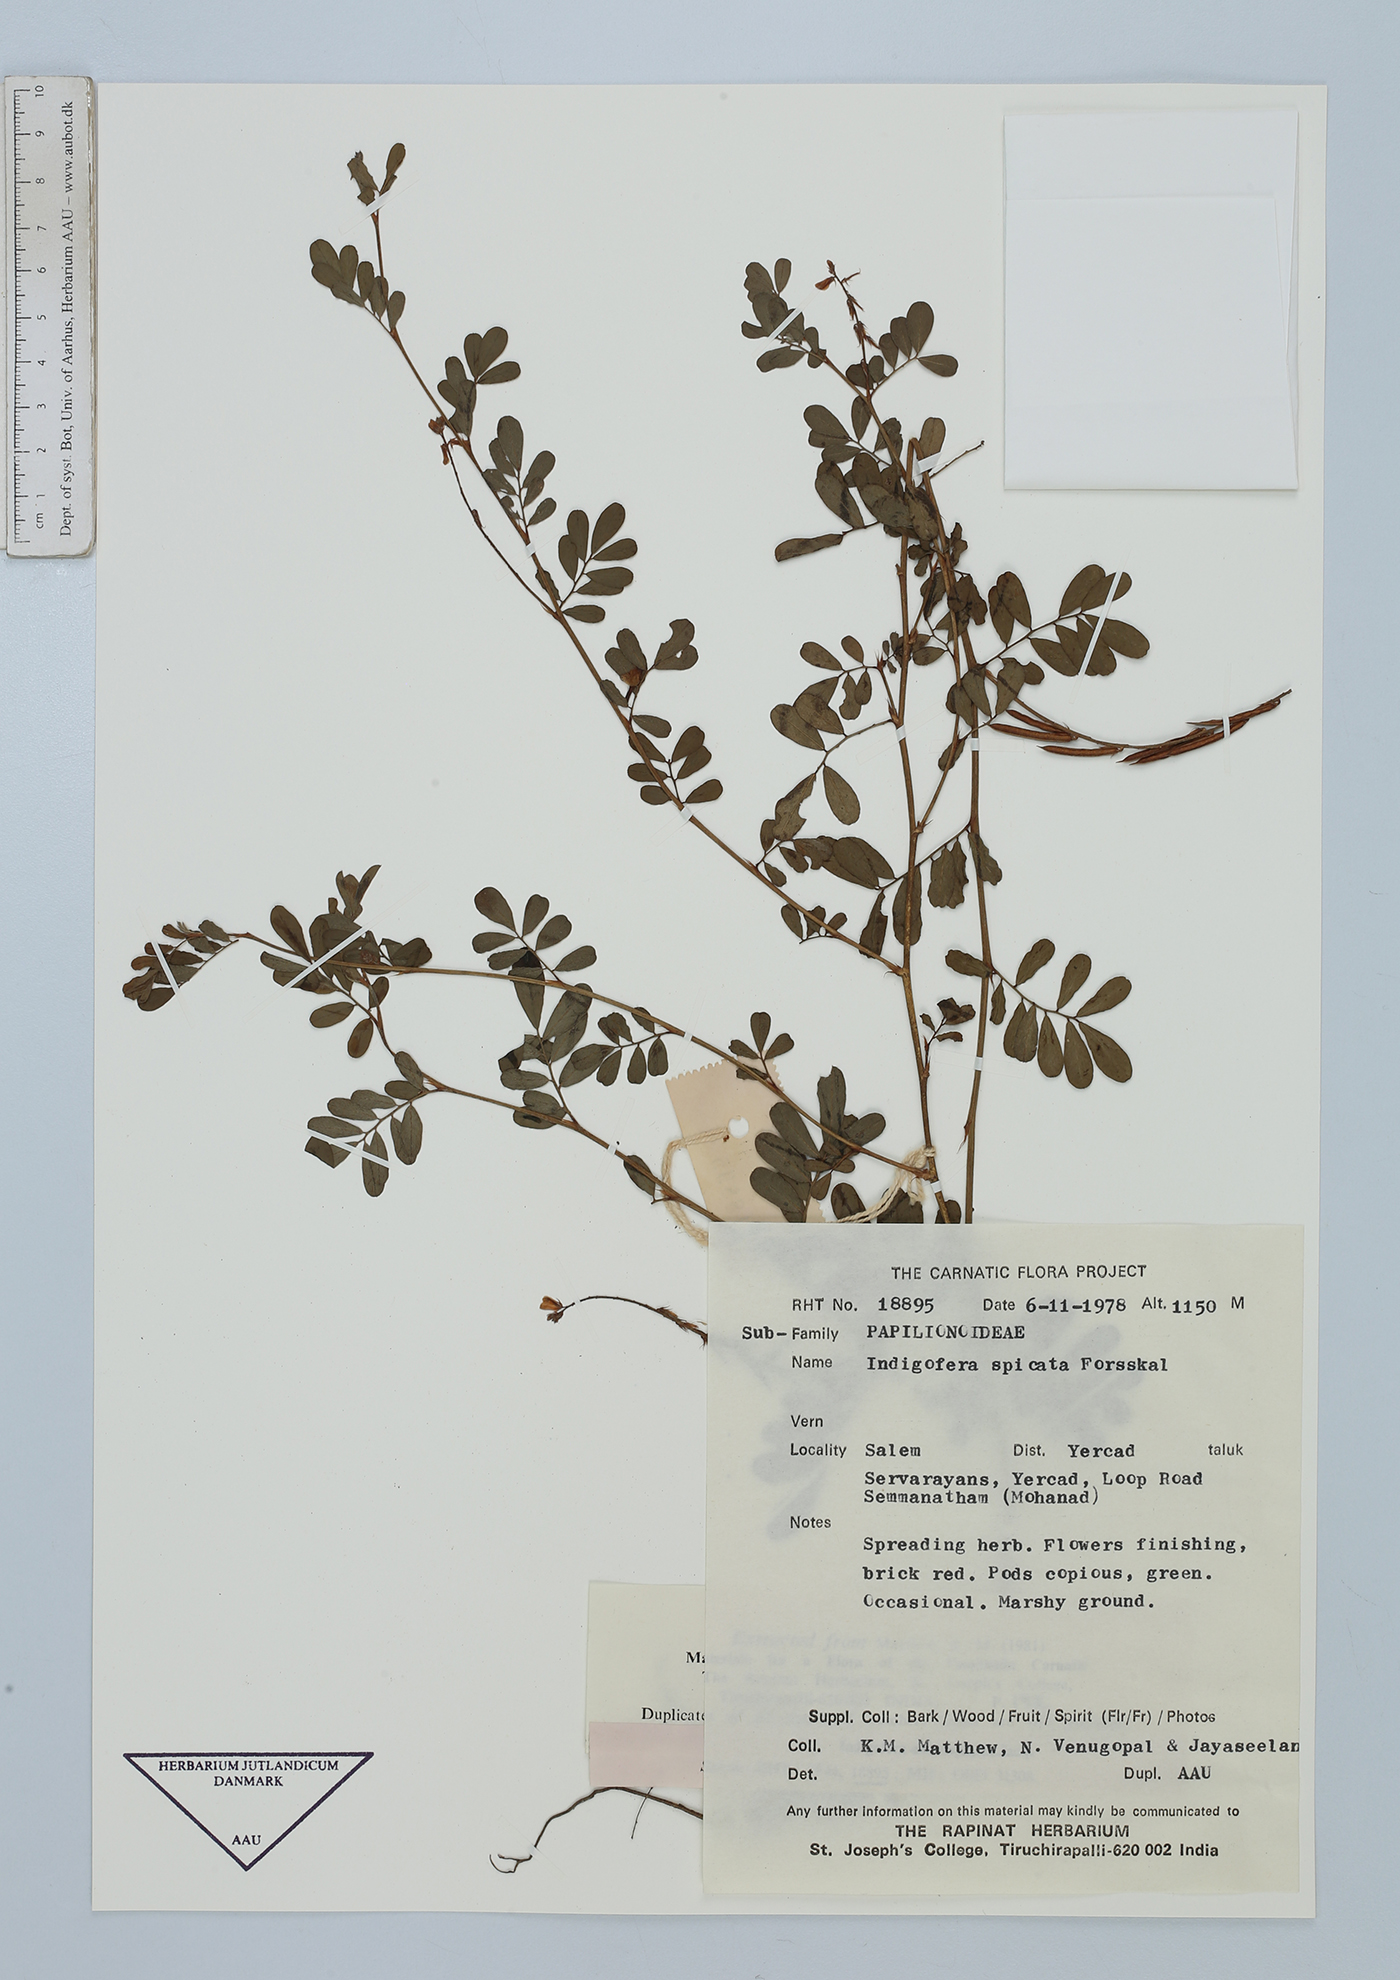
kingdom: Plantae
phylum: Tracheophyta
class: Magnoliopsida
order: Fabales
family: Fabaceae
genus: Indigofera
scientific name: Indigofera spicata
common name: Creeping indigo
